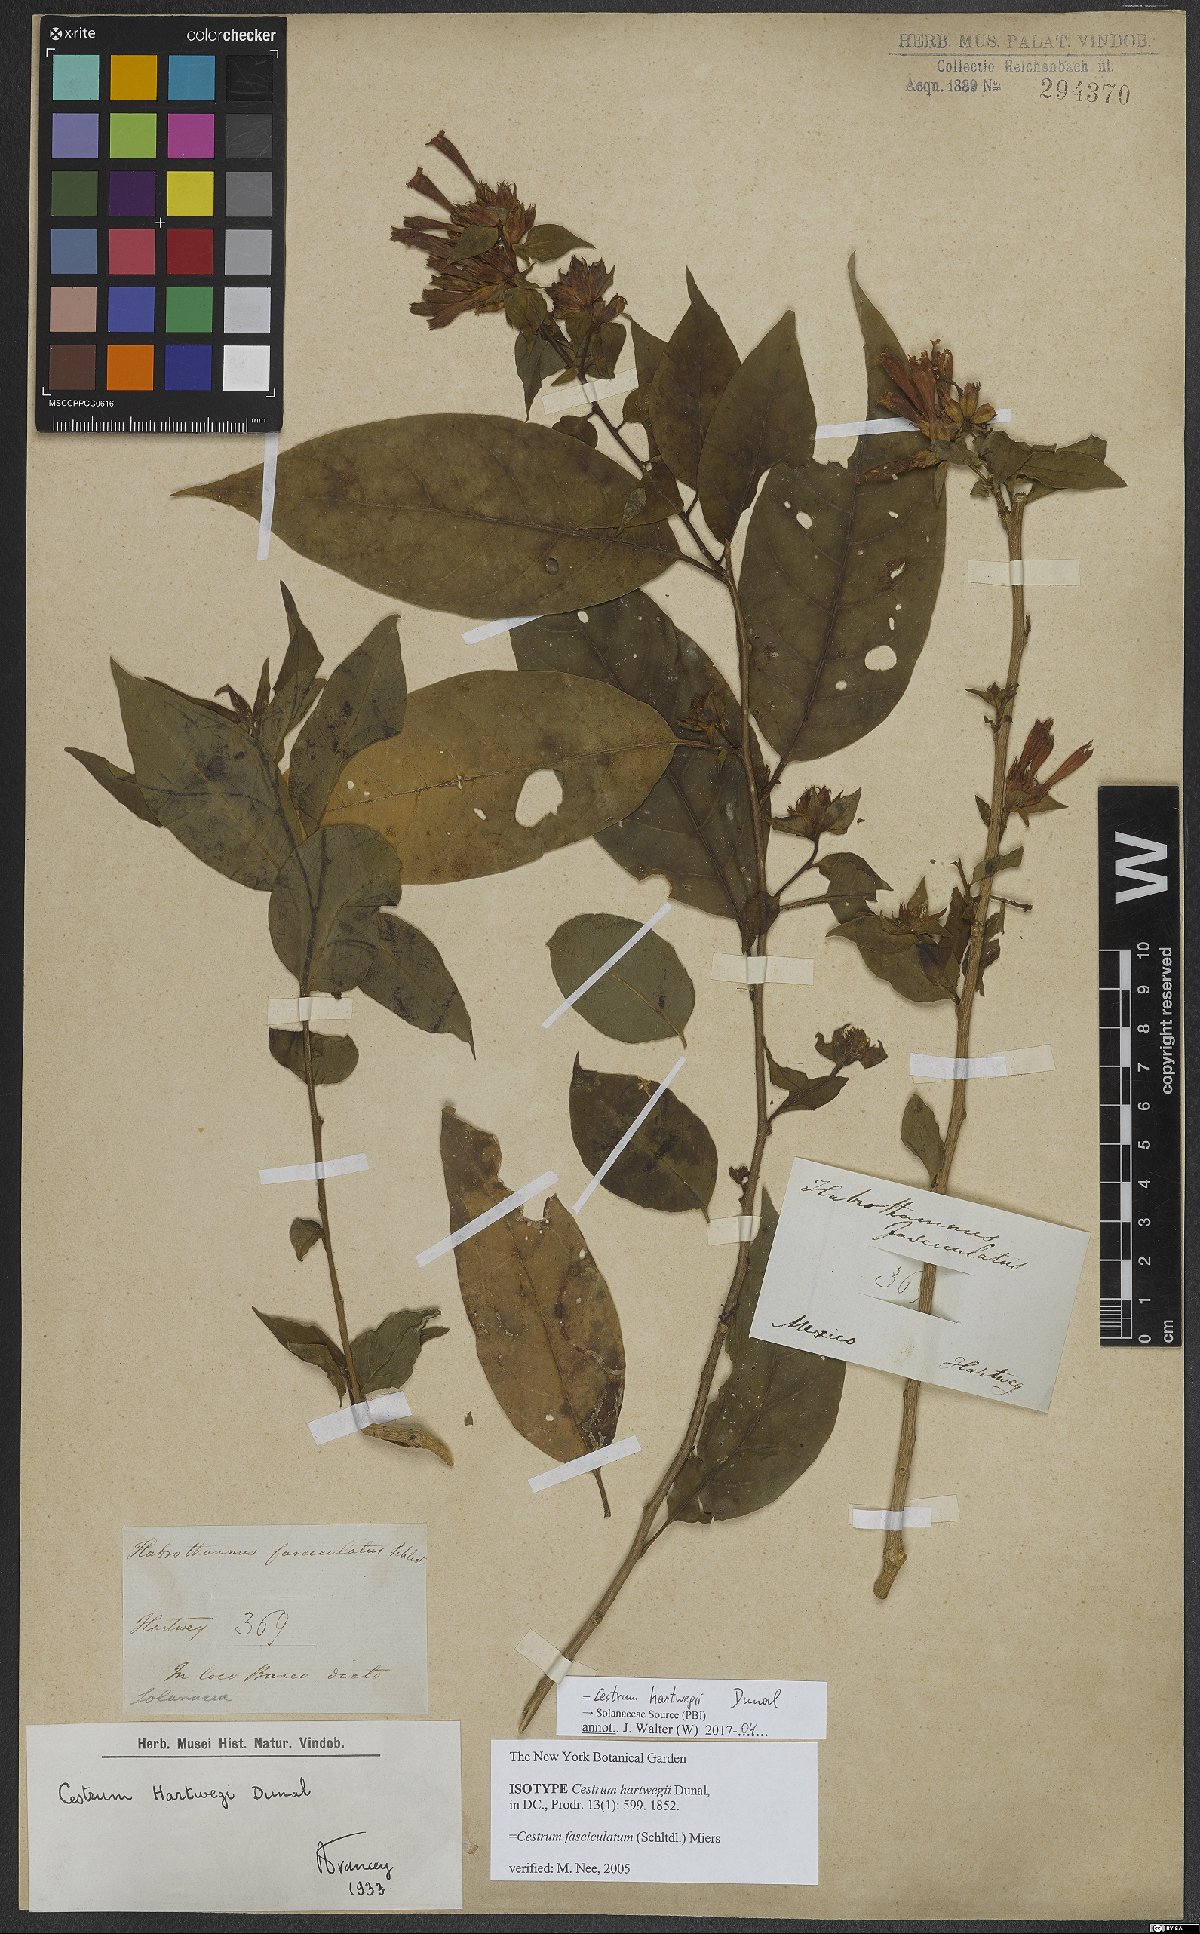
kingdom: Plantae
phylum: Tracheophyta
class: Magnoliopsida
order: Solanales
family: Solanaceae
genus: Cestrum
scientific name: Cestrum hartwegii
